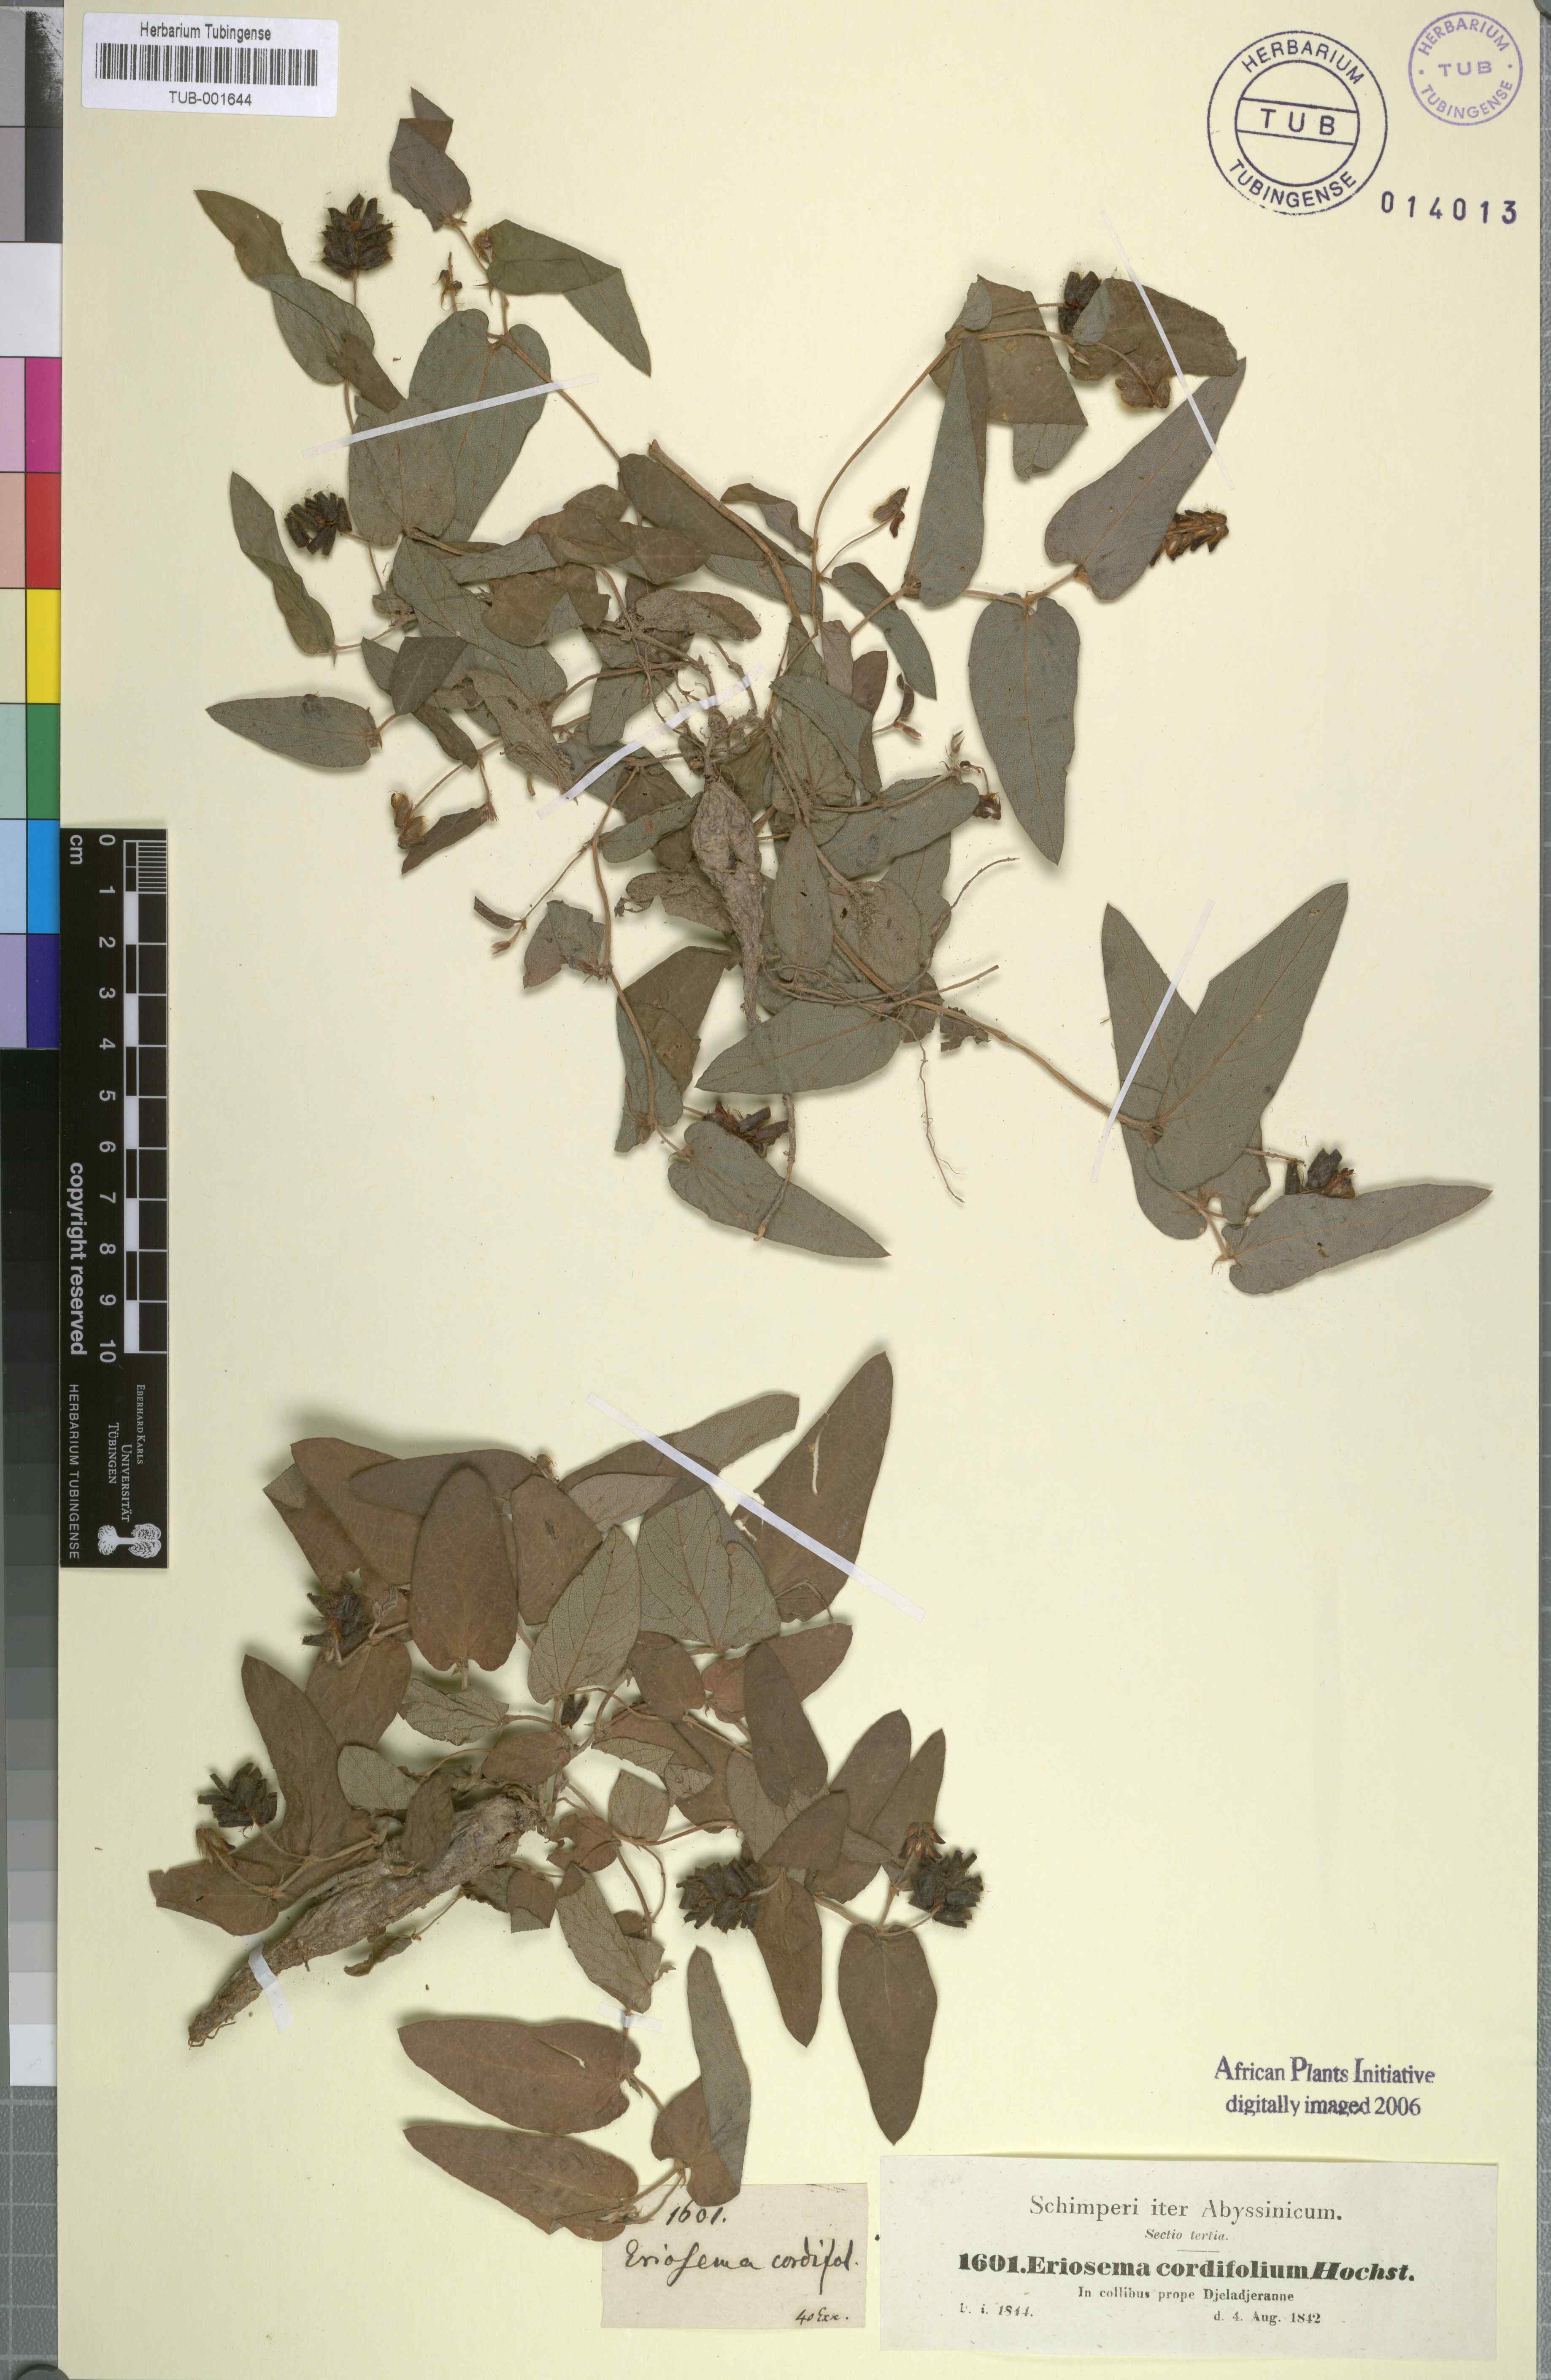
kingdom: Plantae
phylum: Tracheophyta
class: Magnoliopsida
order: Fabales
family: Fabaceae
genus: Eriosema
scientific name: Eriosema cordifolium
